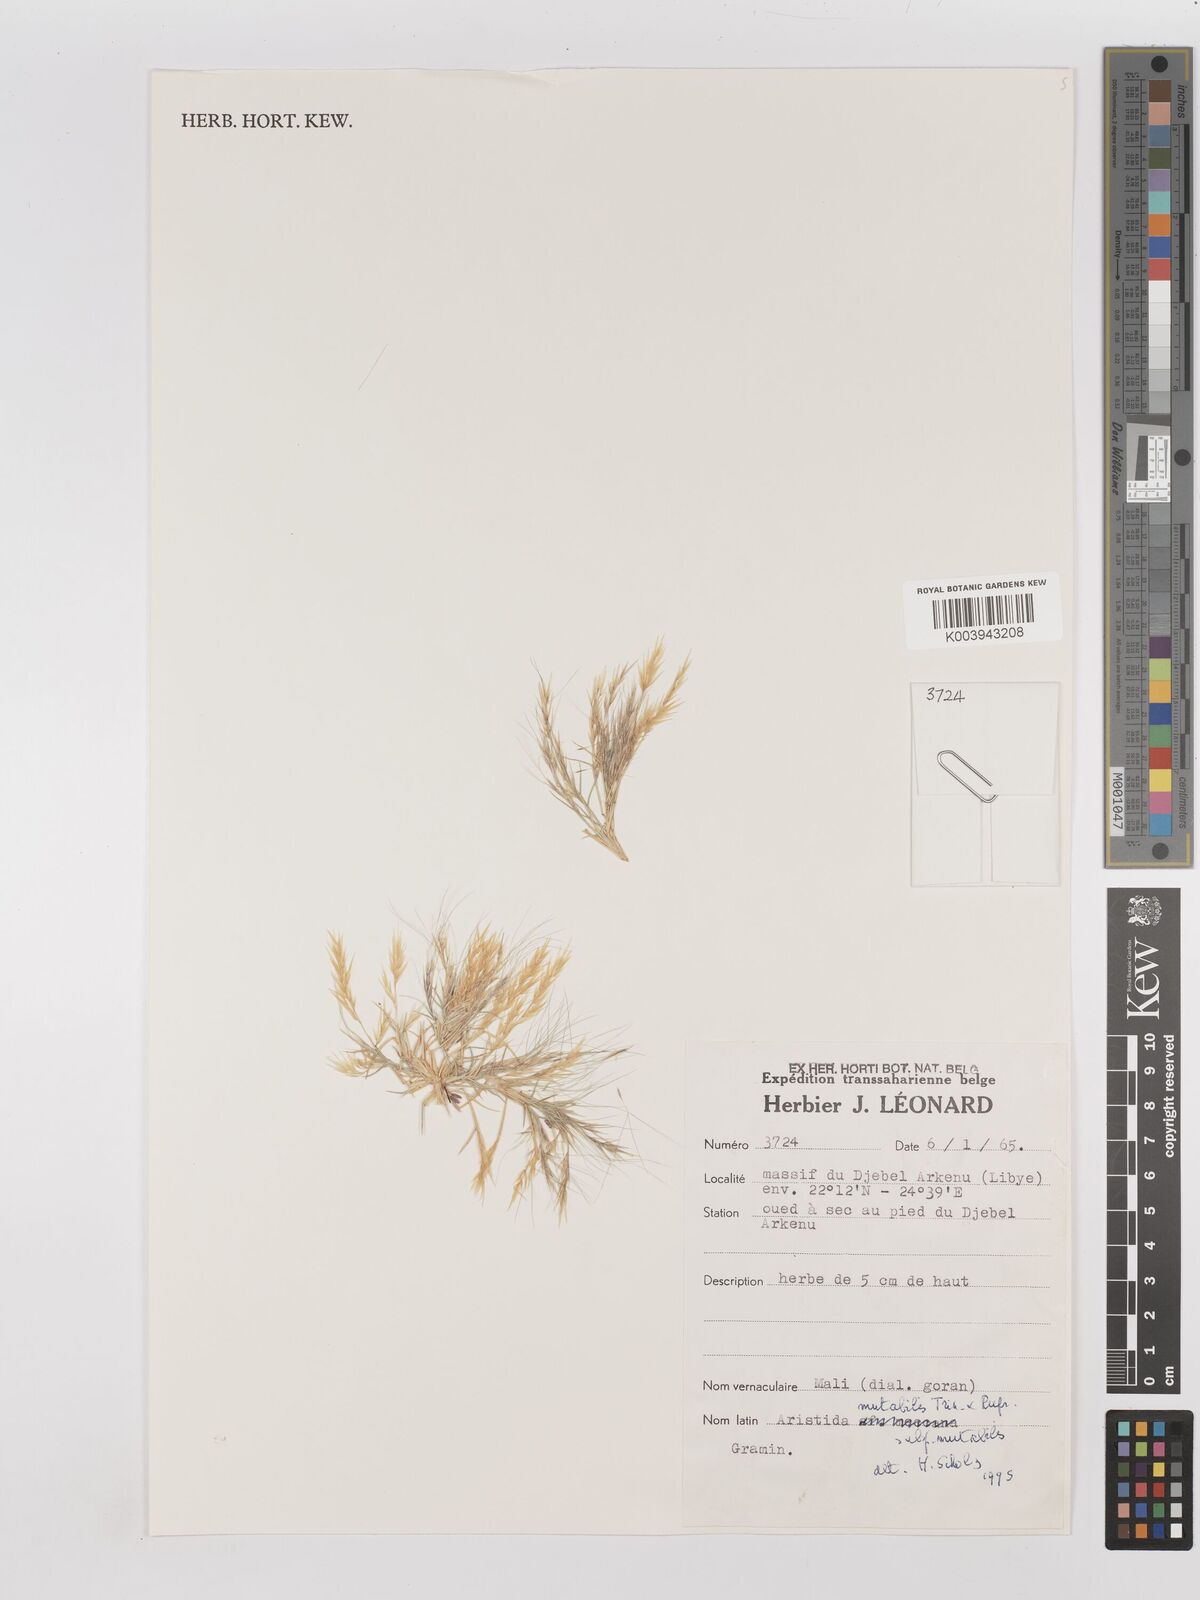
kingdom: Plantae
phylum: Tracheophyta
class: Liliopsida
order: Poales
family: Poaceae
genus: Aristida
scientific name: Aristida mutabilis
